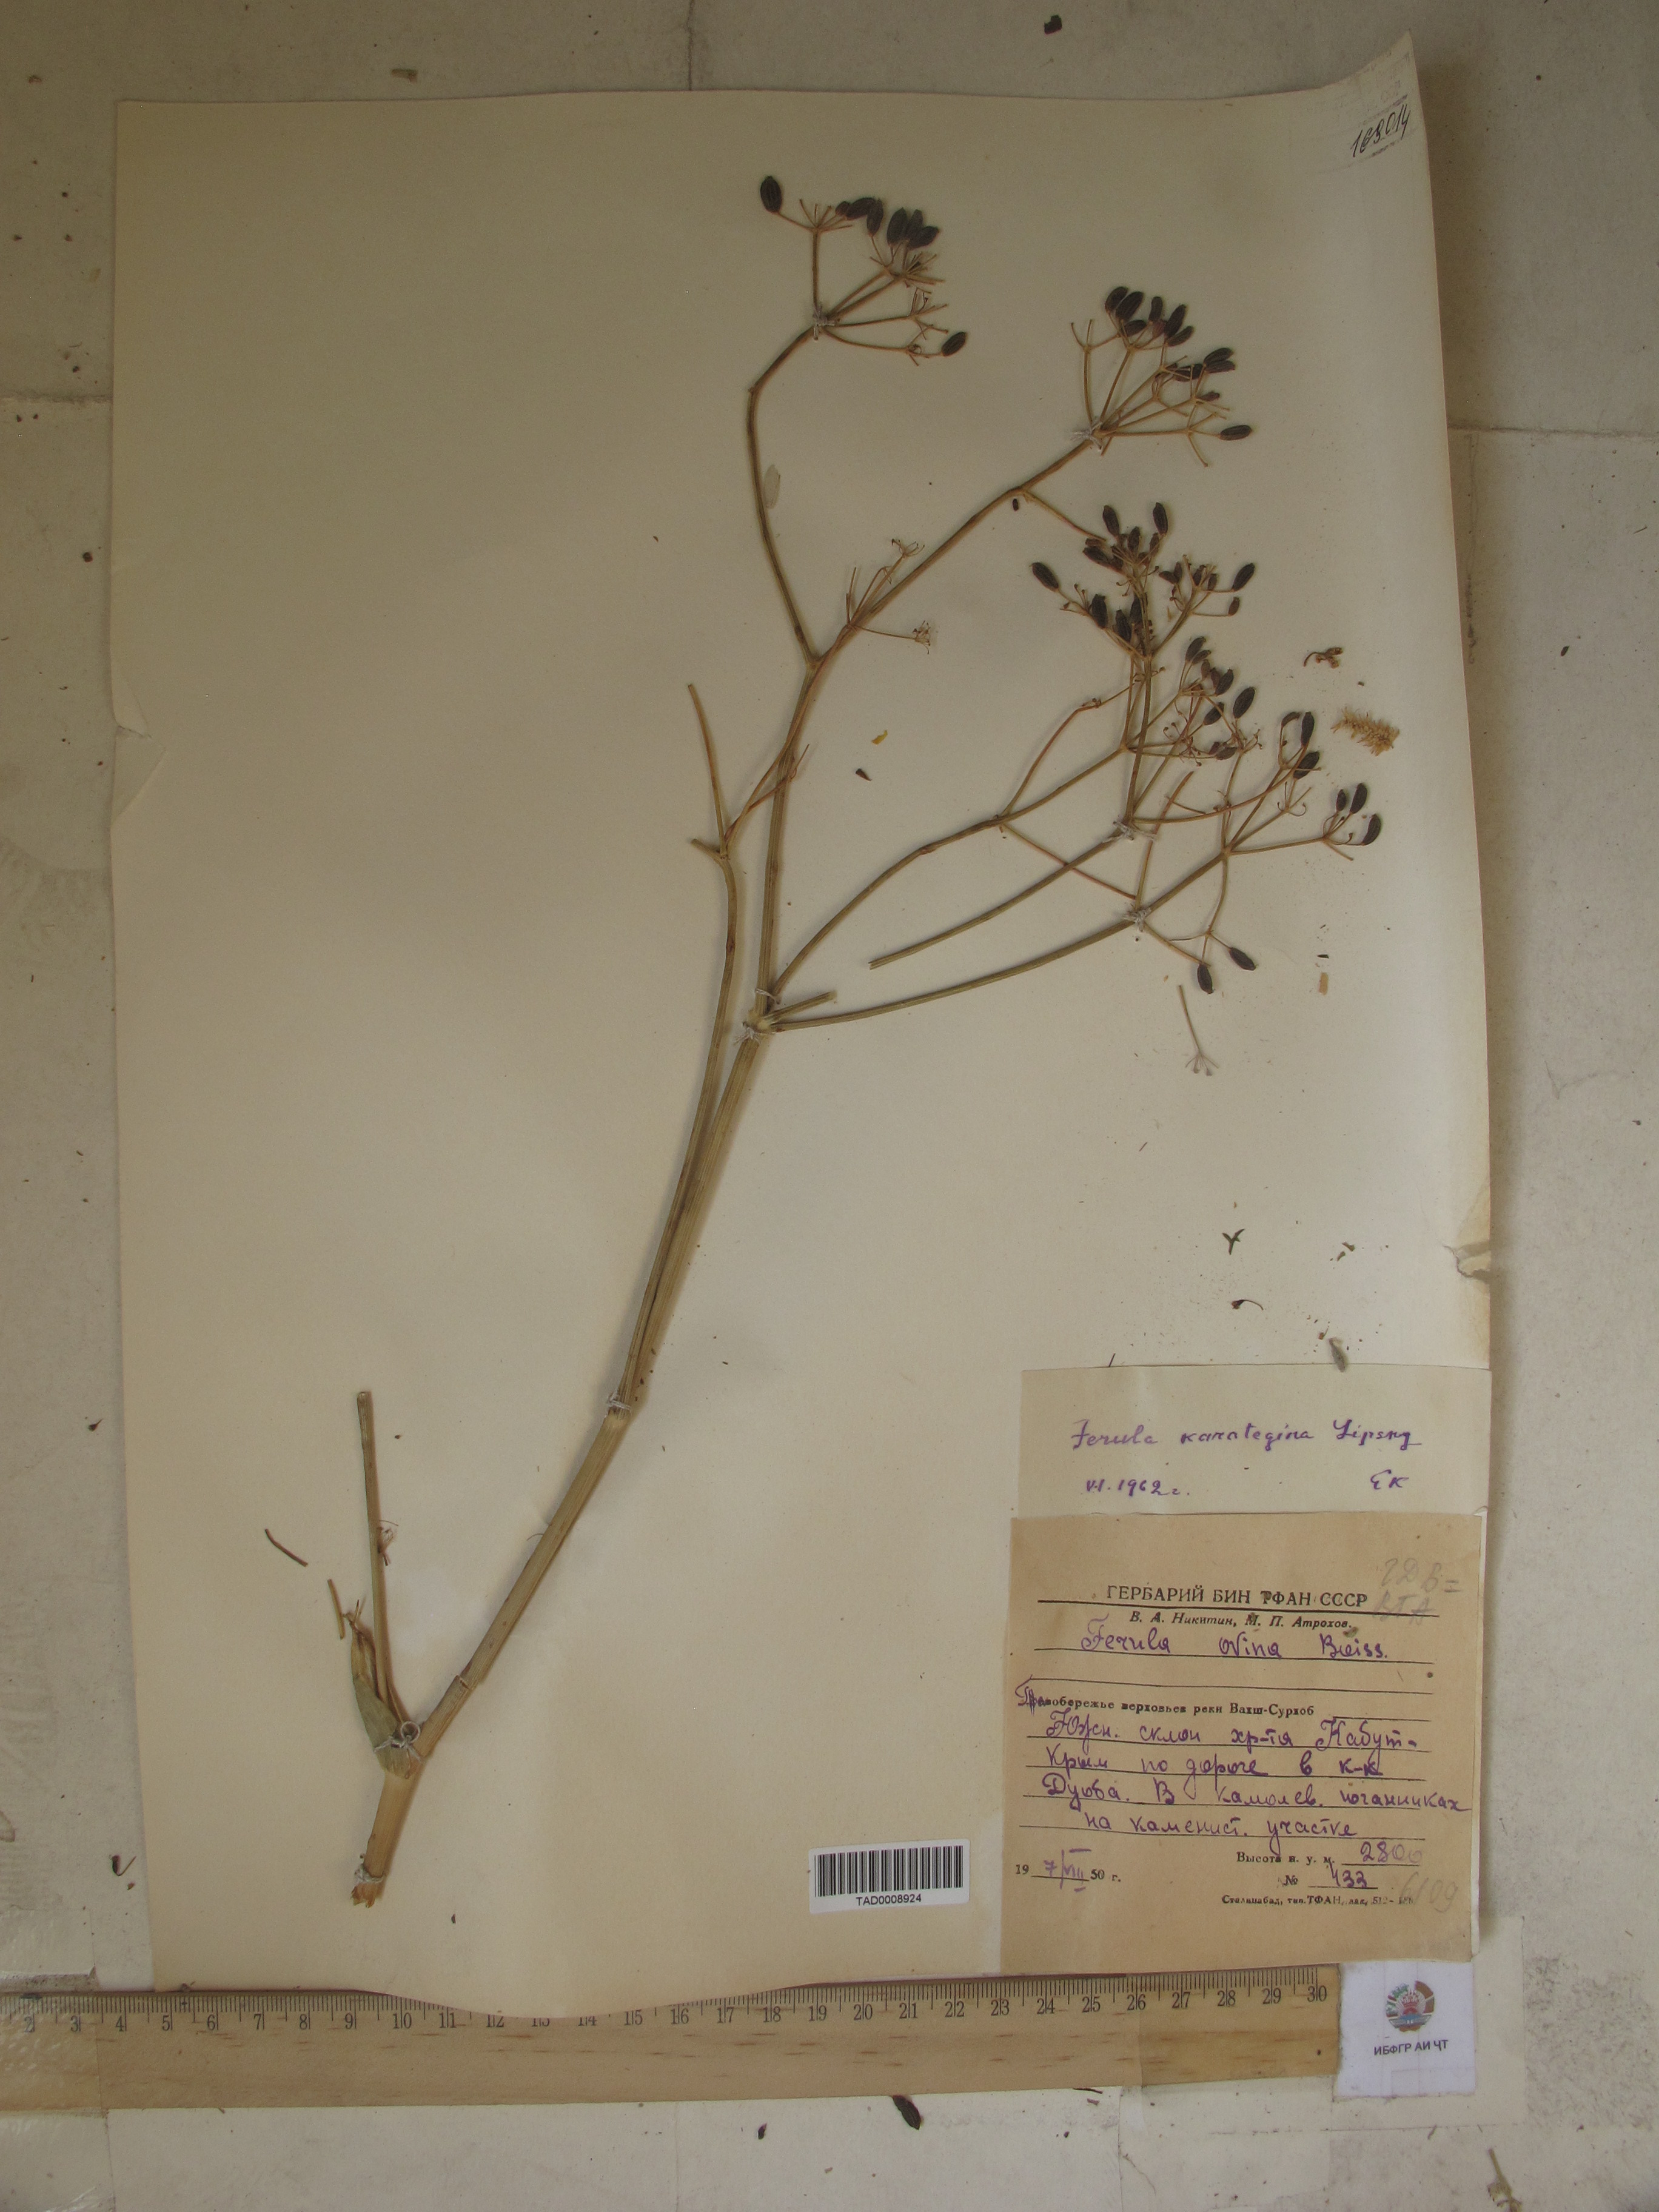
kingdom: Plantae
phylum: Tracheophyta
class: Magnoliopsida
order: Apiales
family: Apiaceae
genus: Ferula
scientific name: Ferula karategina
